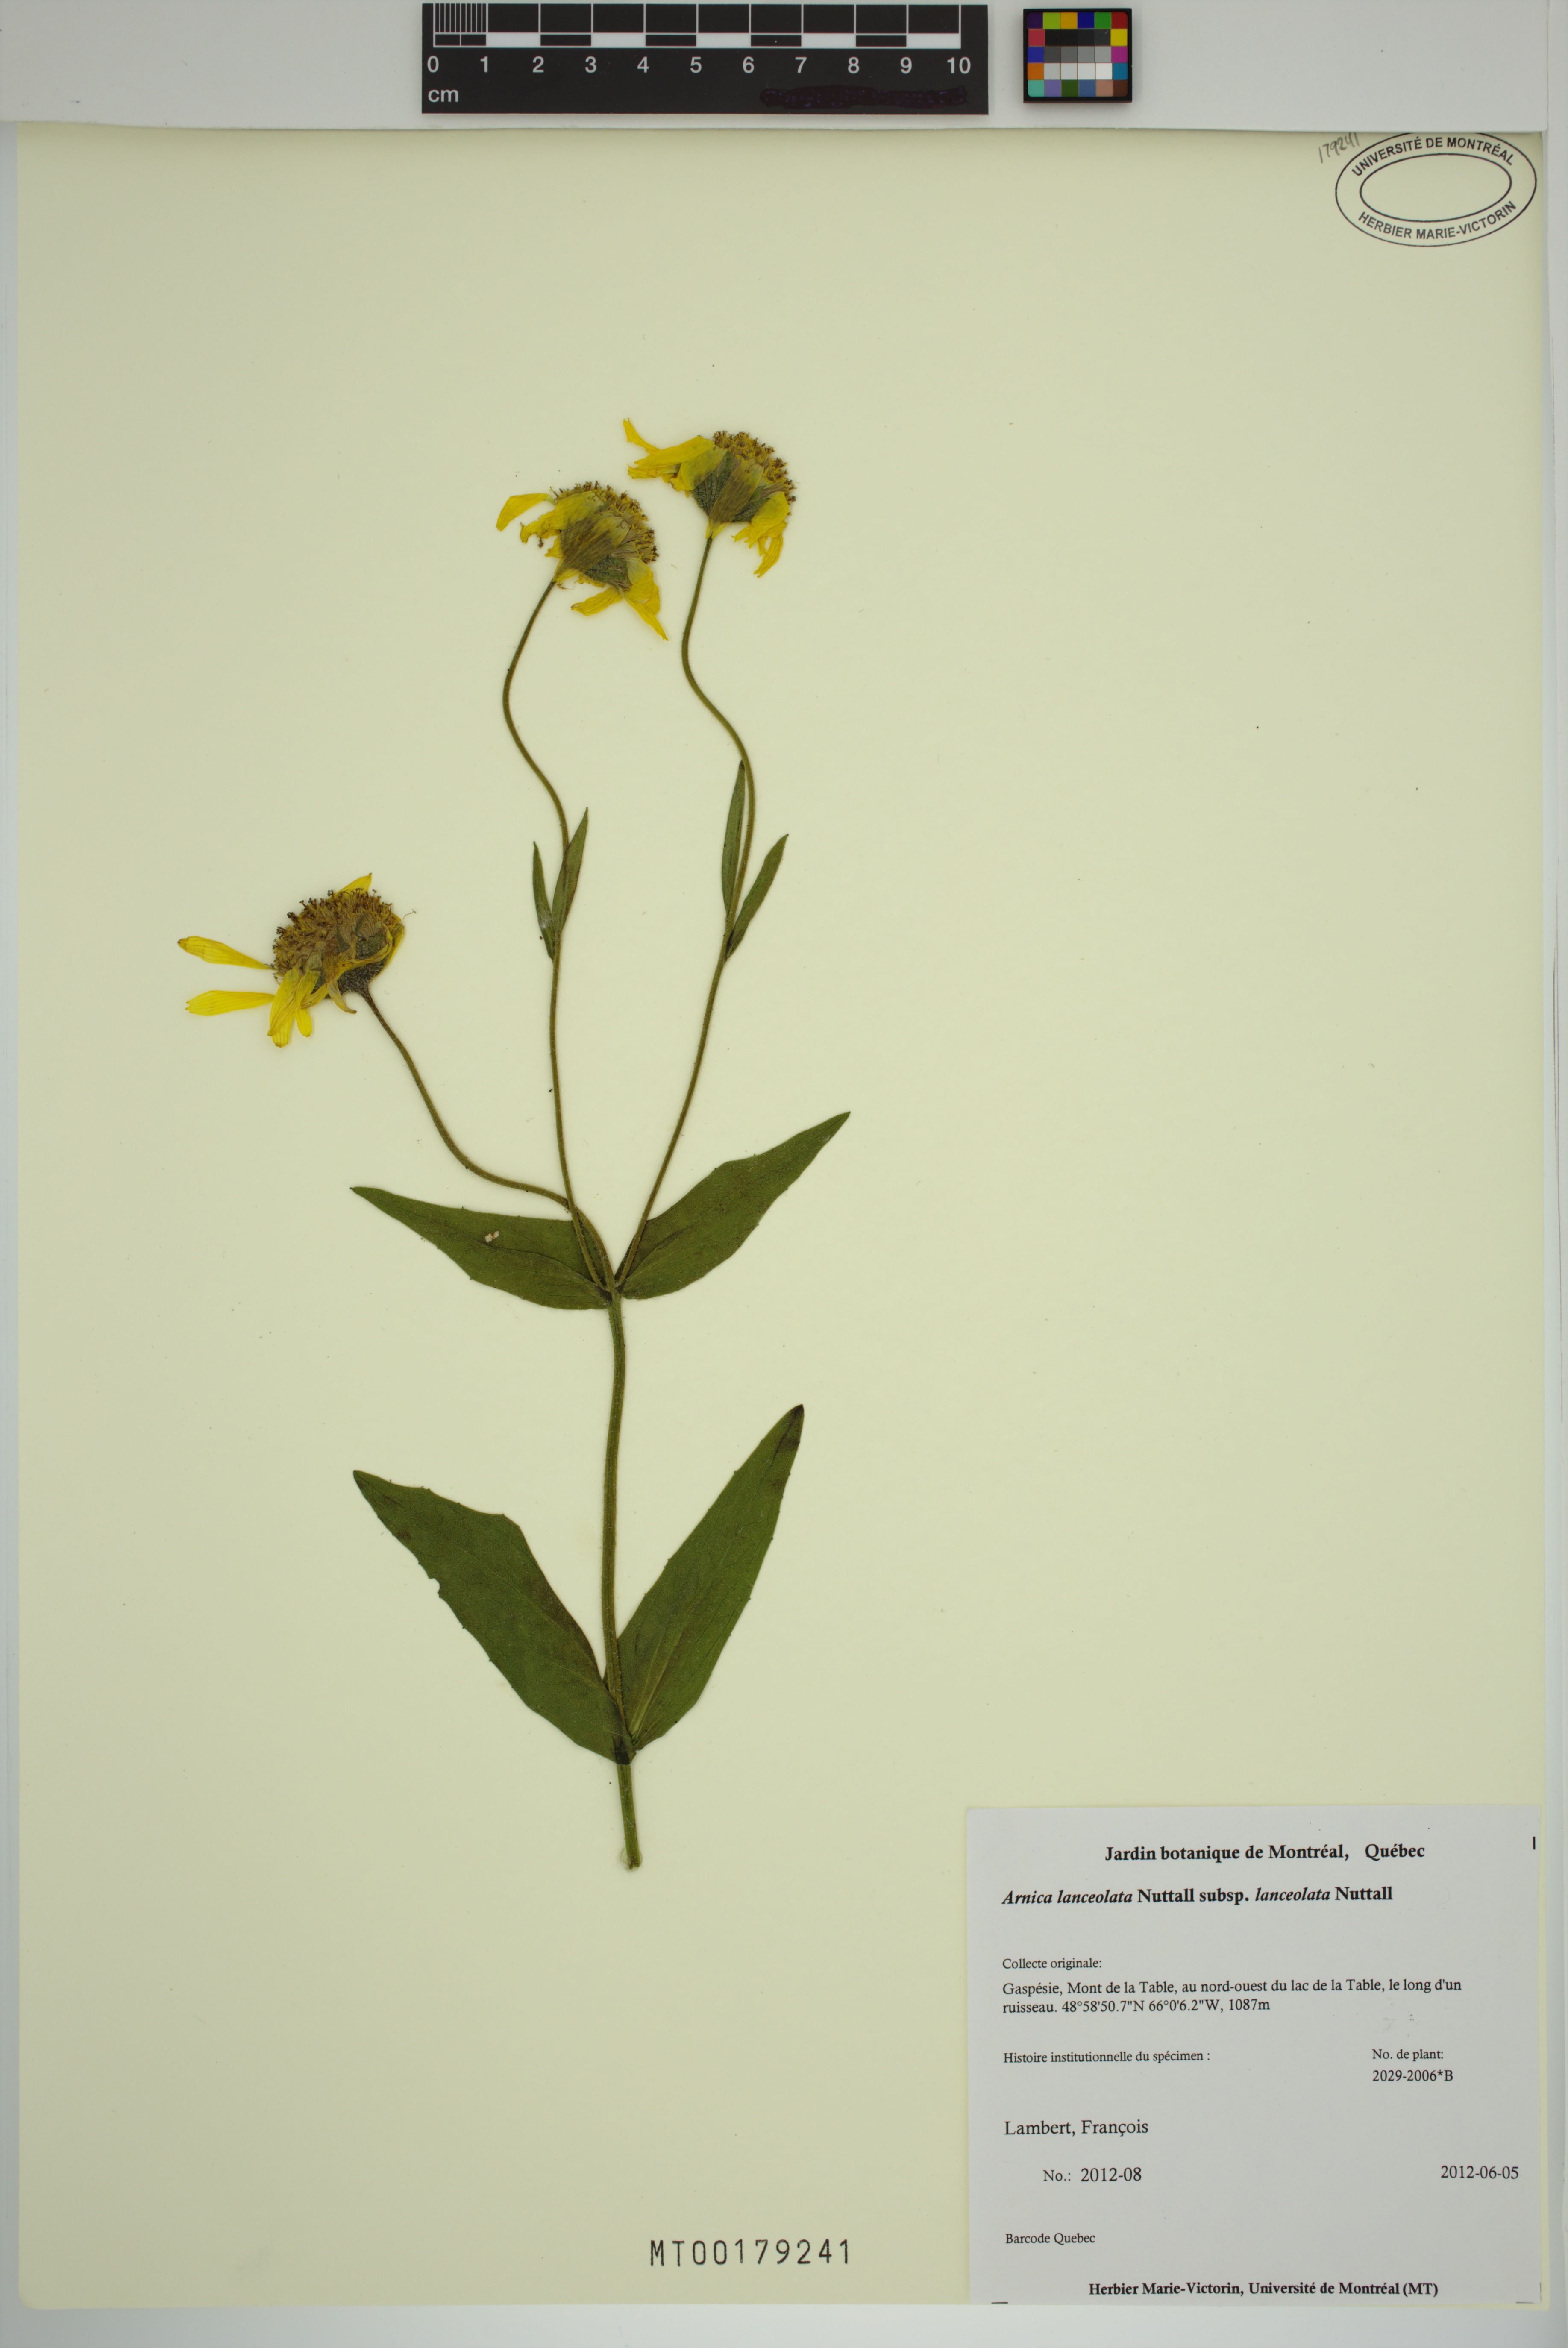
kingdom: Plantae
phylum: Tracheophyta
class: Magnoliopsida
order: Asterales
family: Asteraceae
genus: Arnica
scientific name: Arnica lanceolata
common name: Lance-leaved arnica
